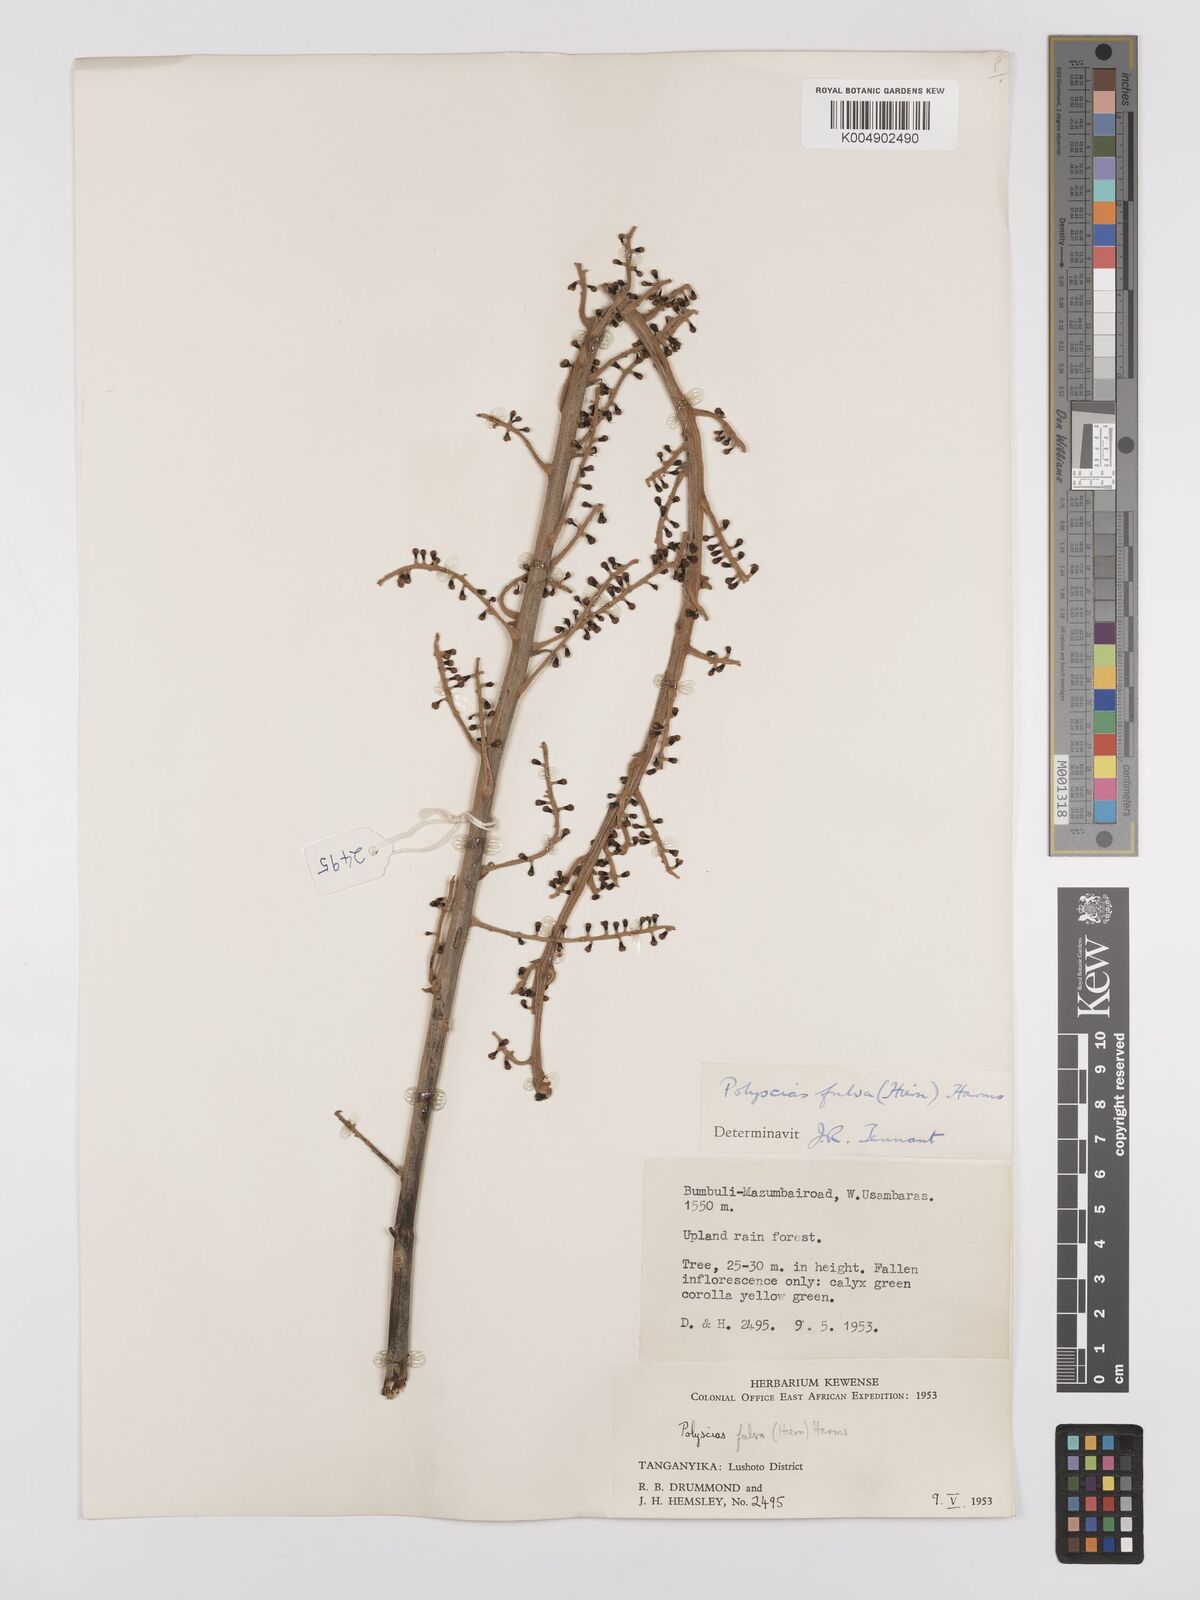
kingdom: Plantae
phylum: Tracheophyta
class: Magnoliopsida
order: Apiales
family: Araliaceae
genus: Polyscias
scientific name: Polyscias fulva
